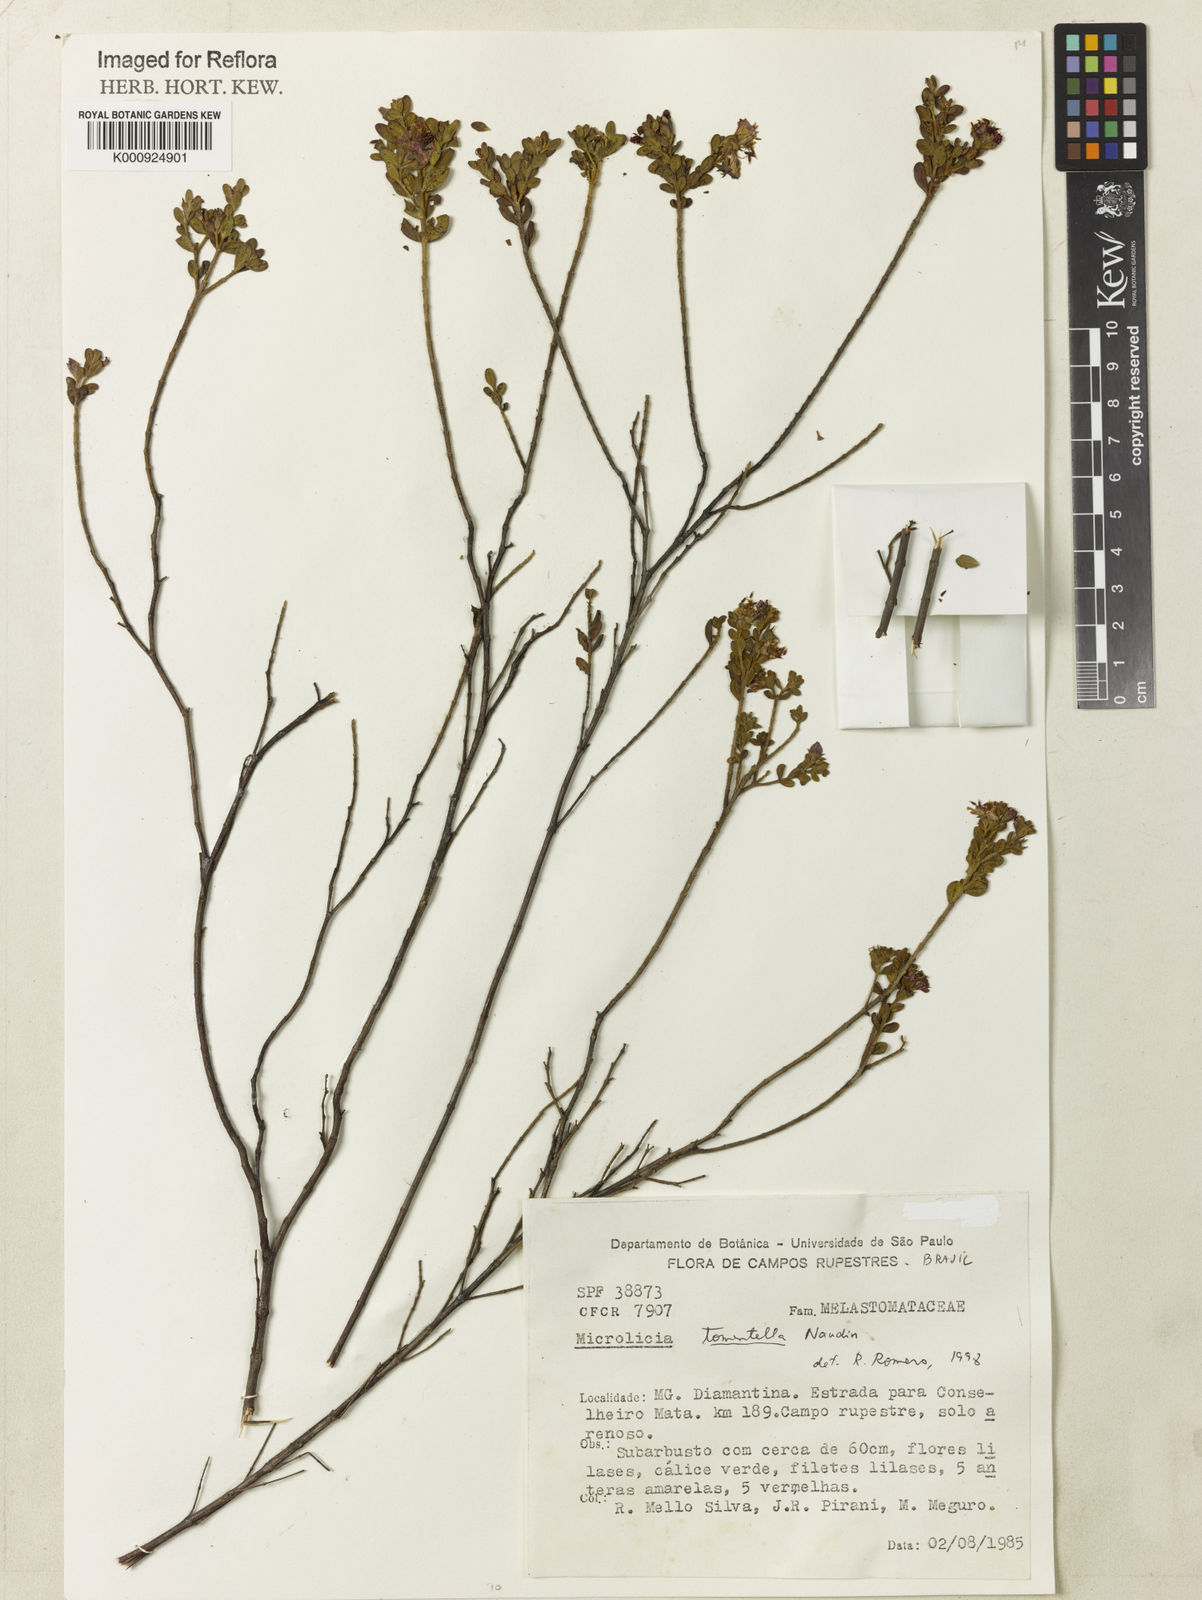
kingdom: Plantae
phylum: Tracheophyta
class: Magnoliopsida
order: Myrtales
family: Melastomataceae
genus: Microlicia
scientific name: Microlicia tomentella
